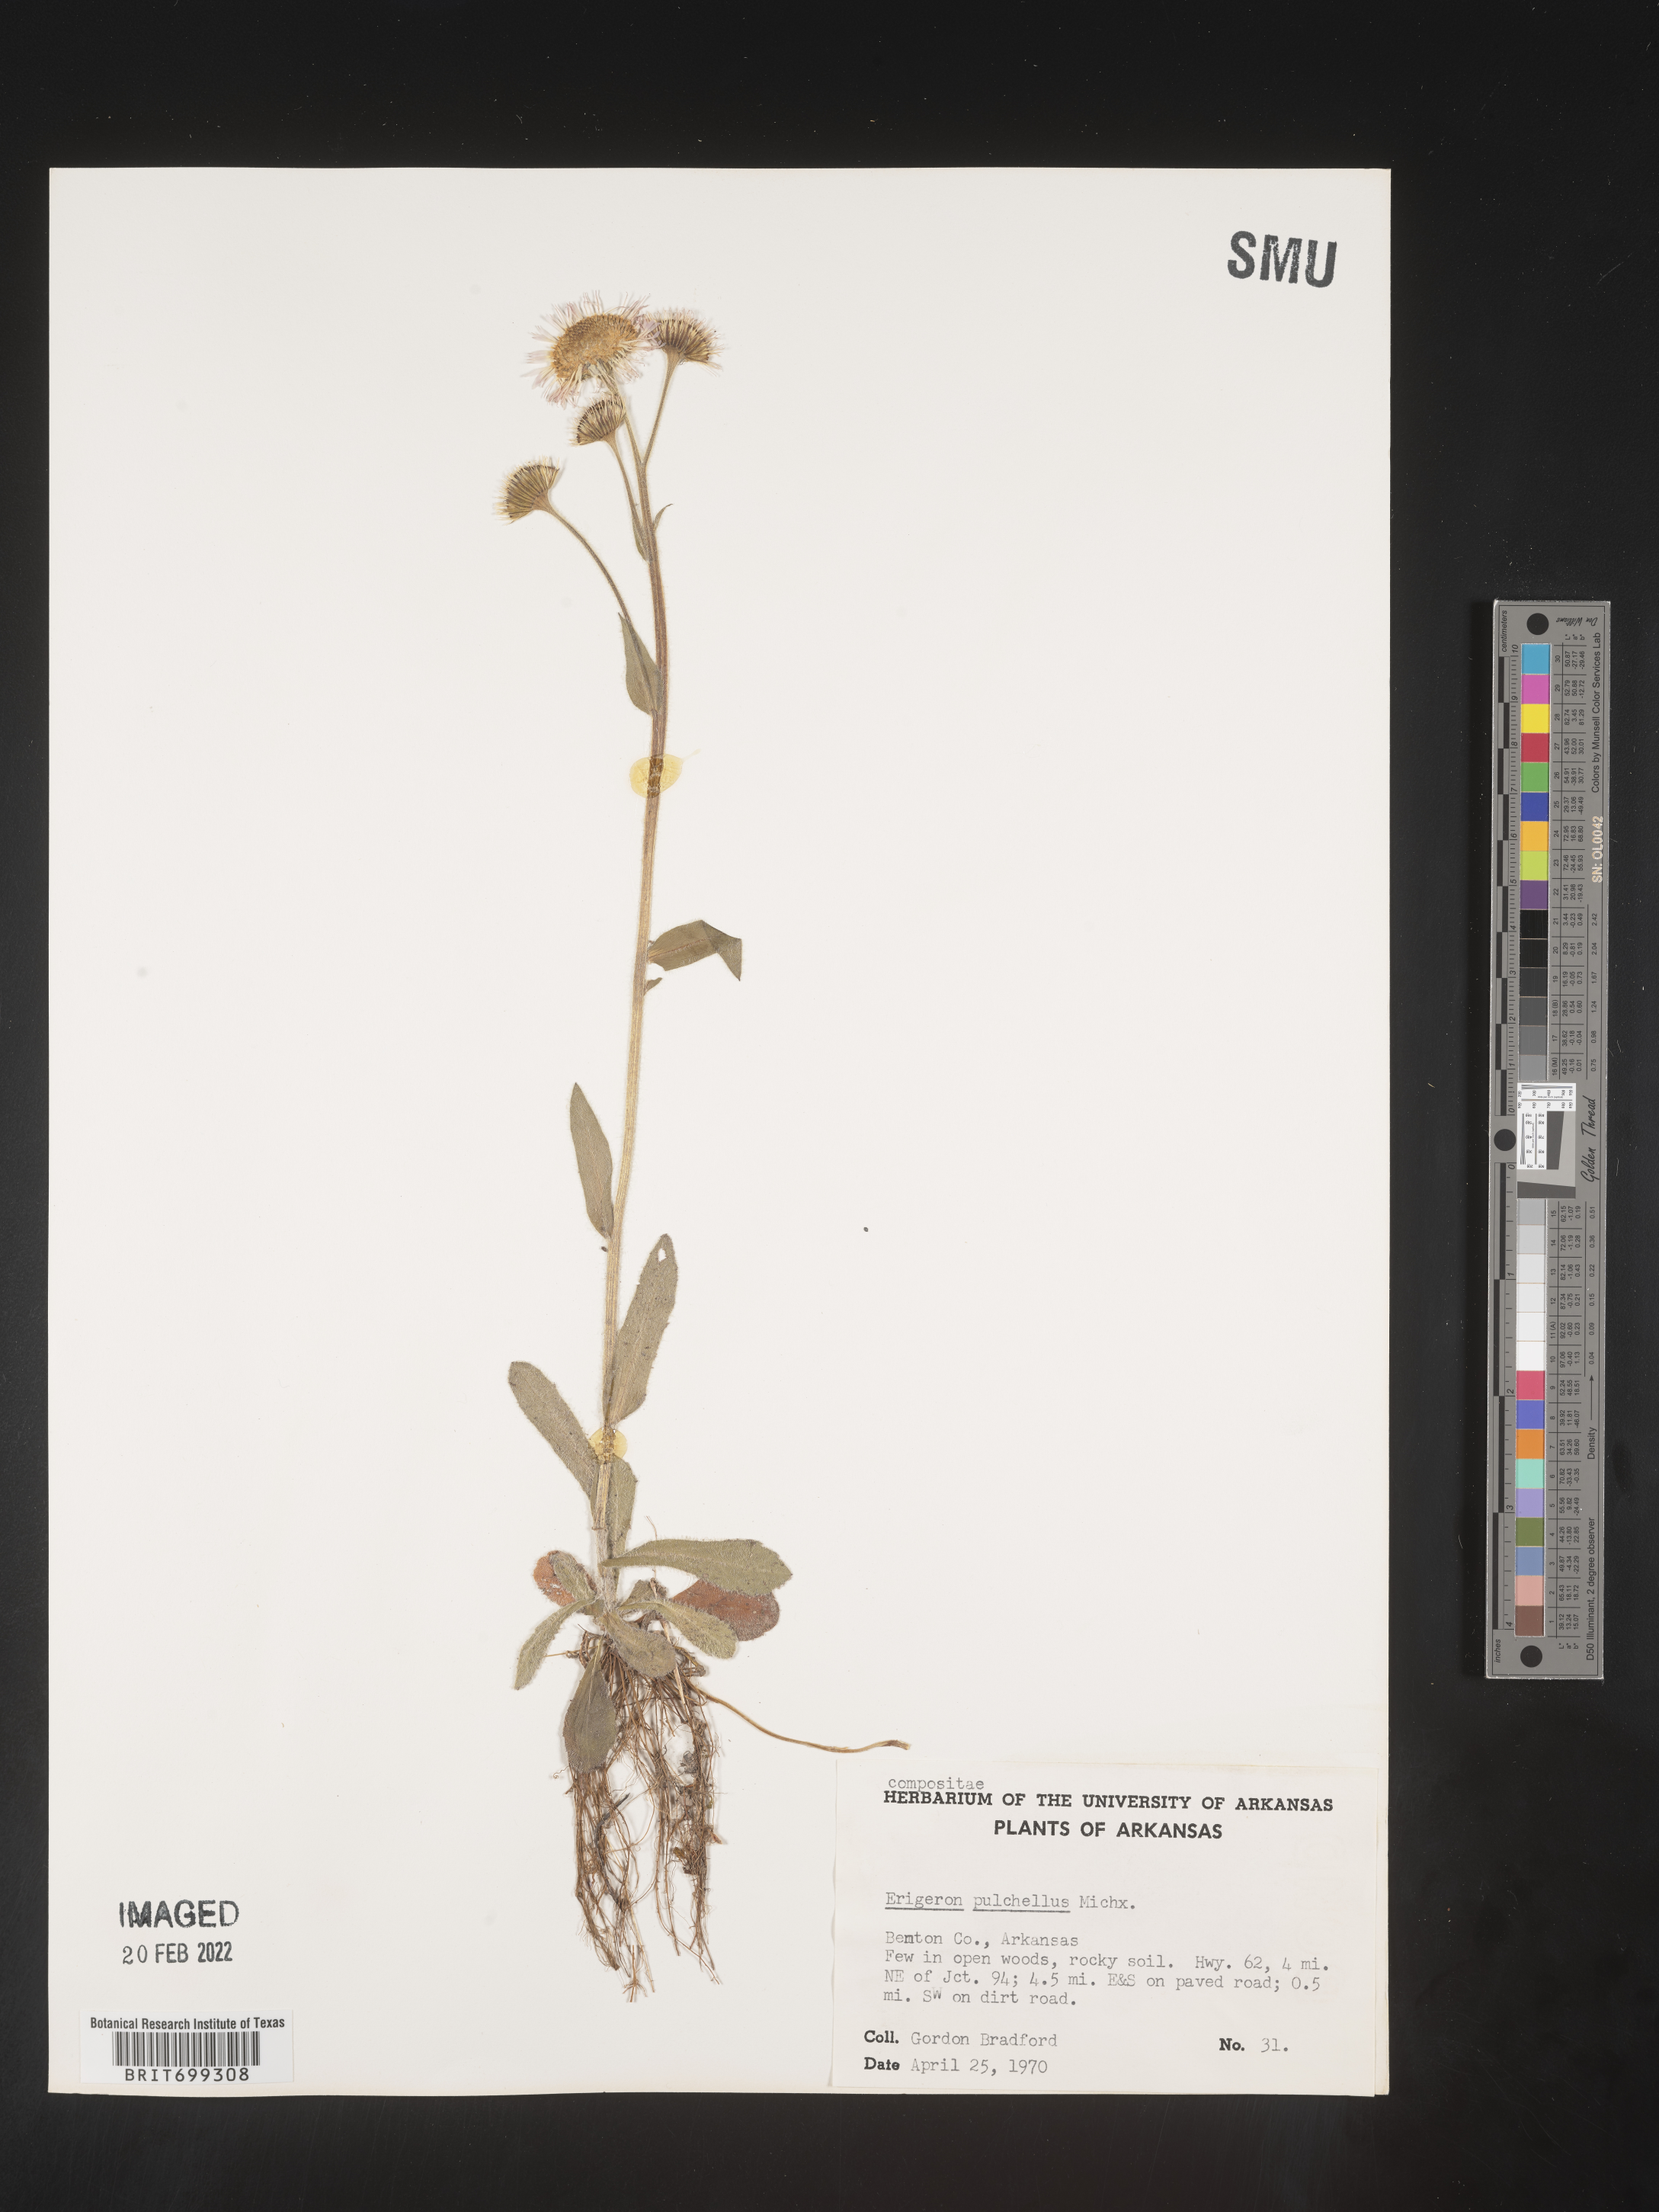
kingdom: Plantae
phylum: Tracheophyta
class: Magnoliopsida
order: Asterales
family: Asteraceae
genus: Erigeron
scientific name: Erigeron pulchellus
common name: Hairy fleabane
